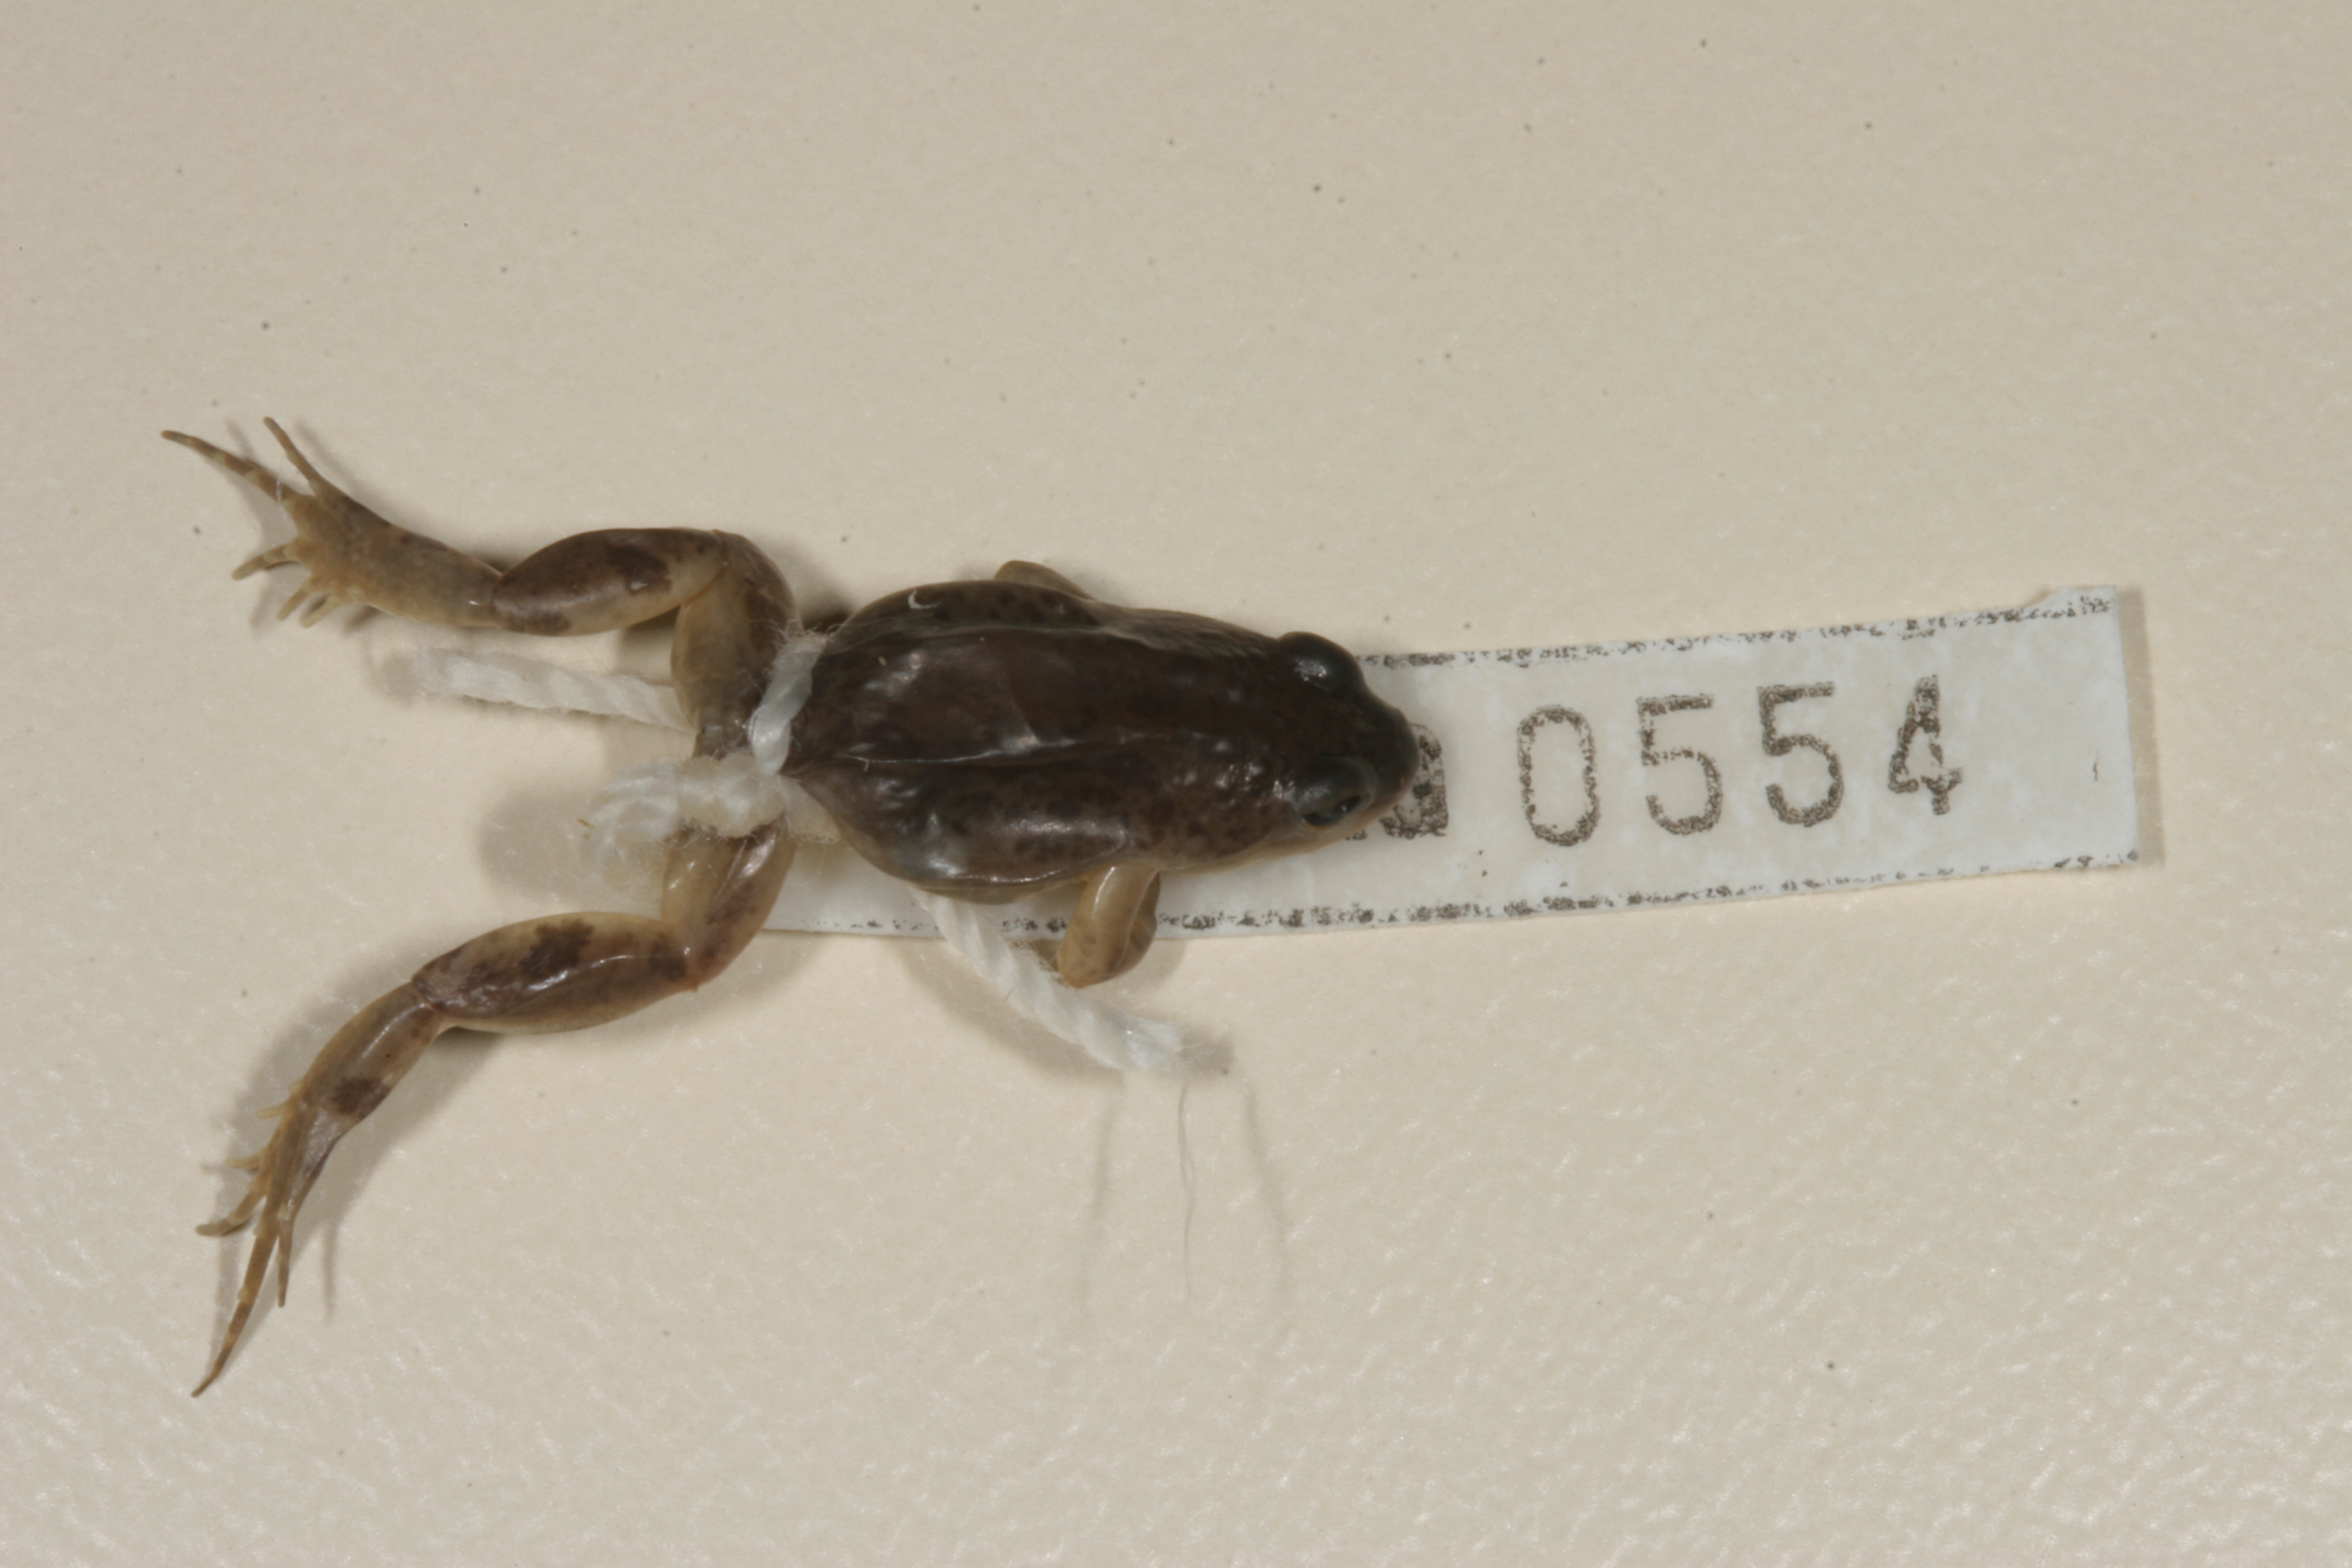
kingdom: Animalia
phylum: Chordata
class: Amphibia
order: Anura
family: Pyxicephalidae
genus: Cacosternum
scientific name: Cacosternum boettgeri
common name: Boettger's frog
